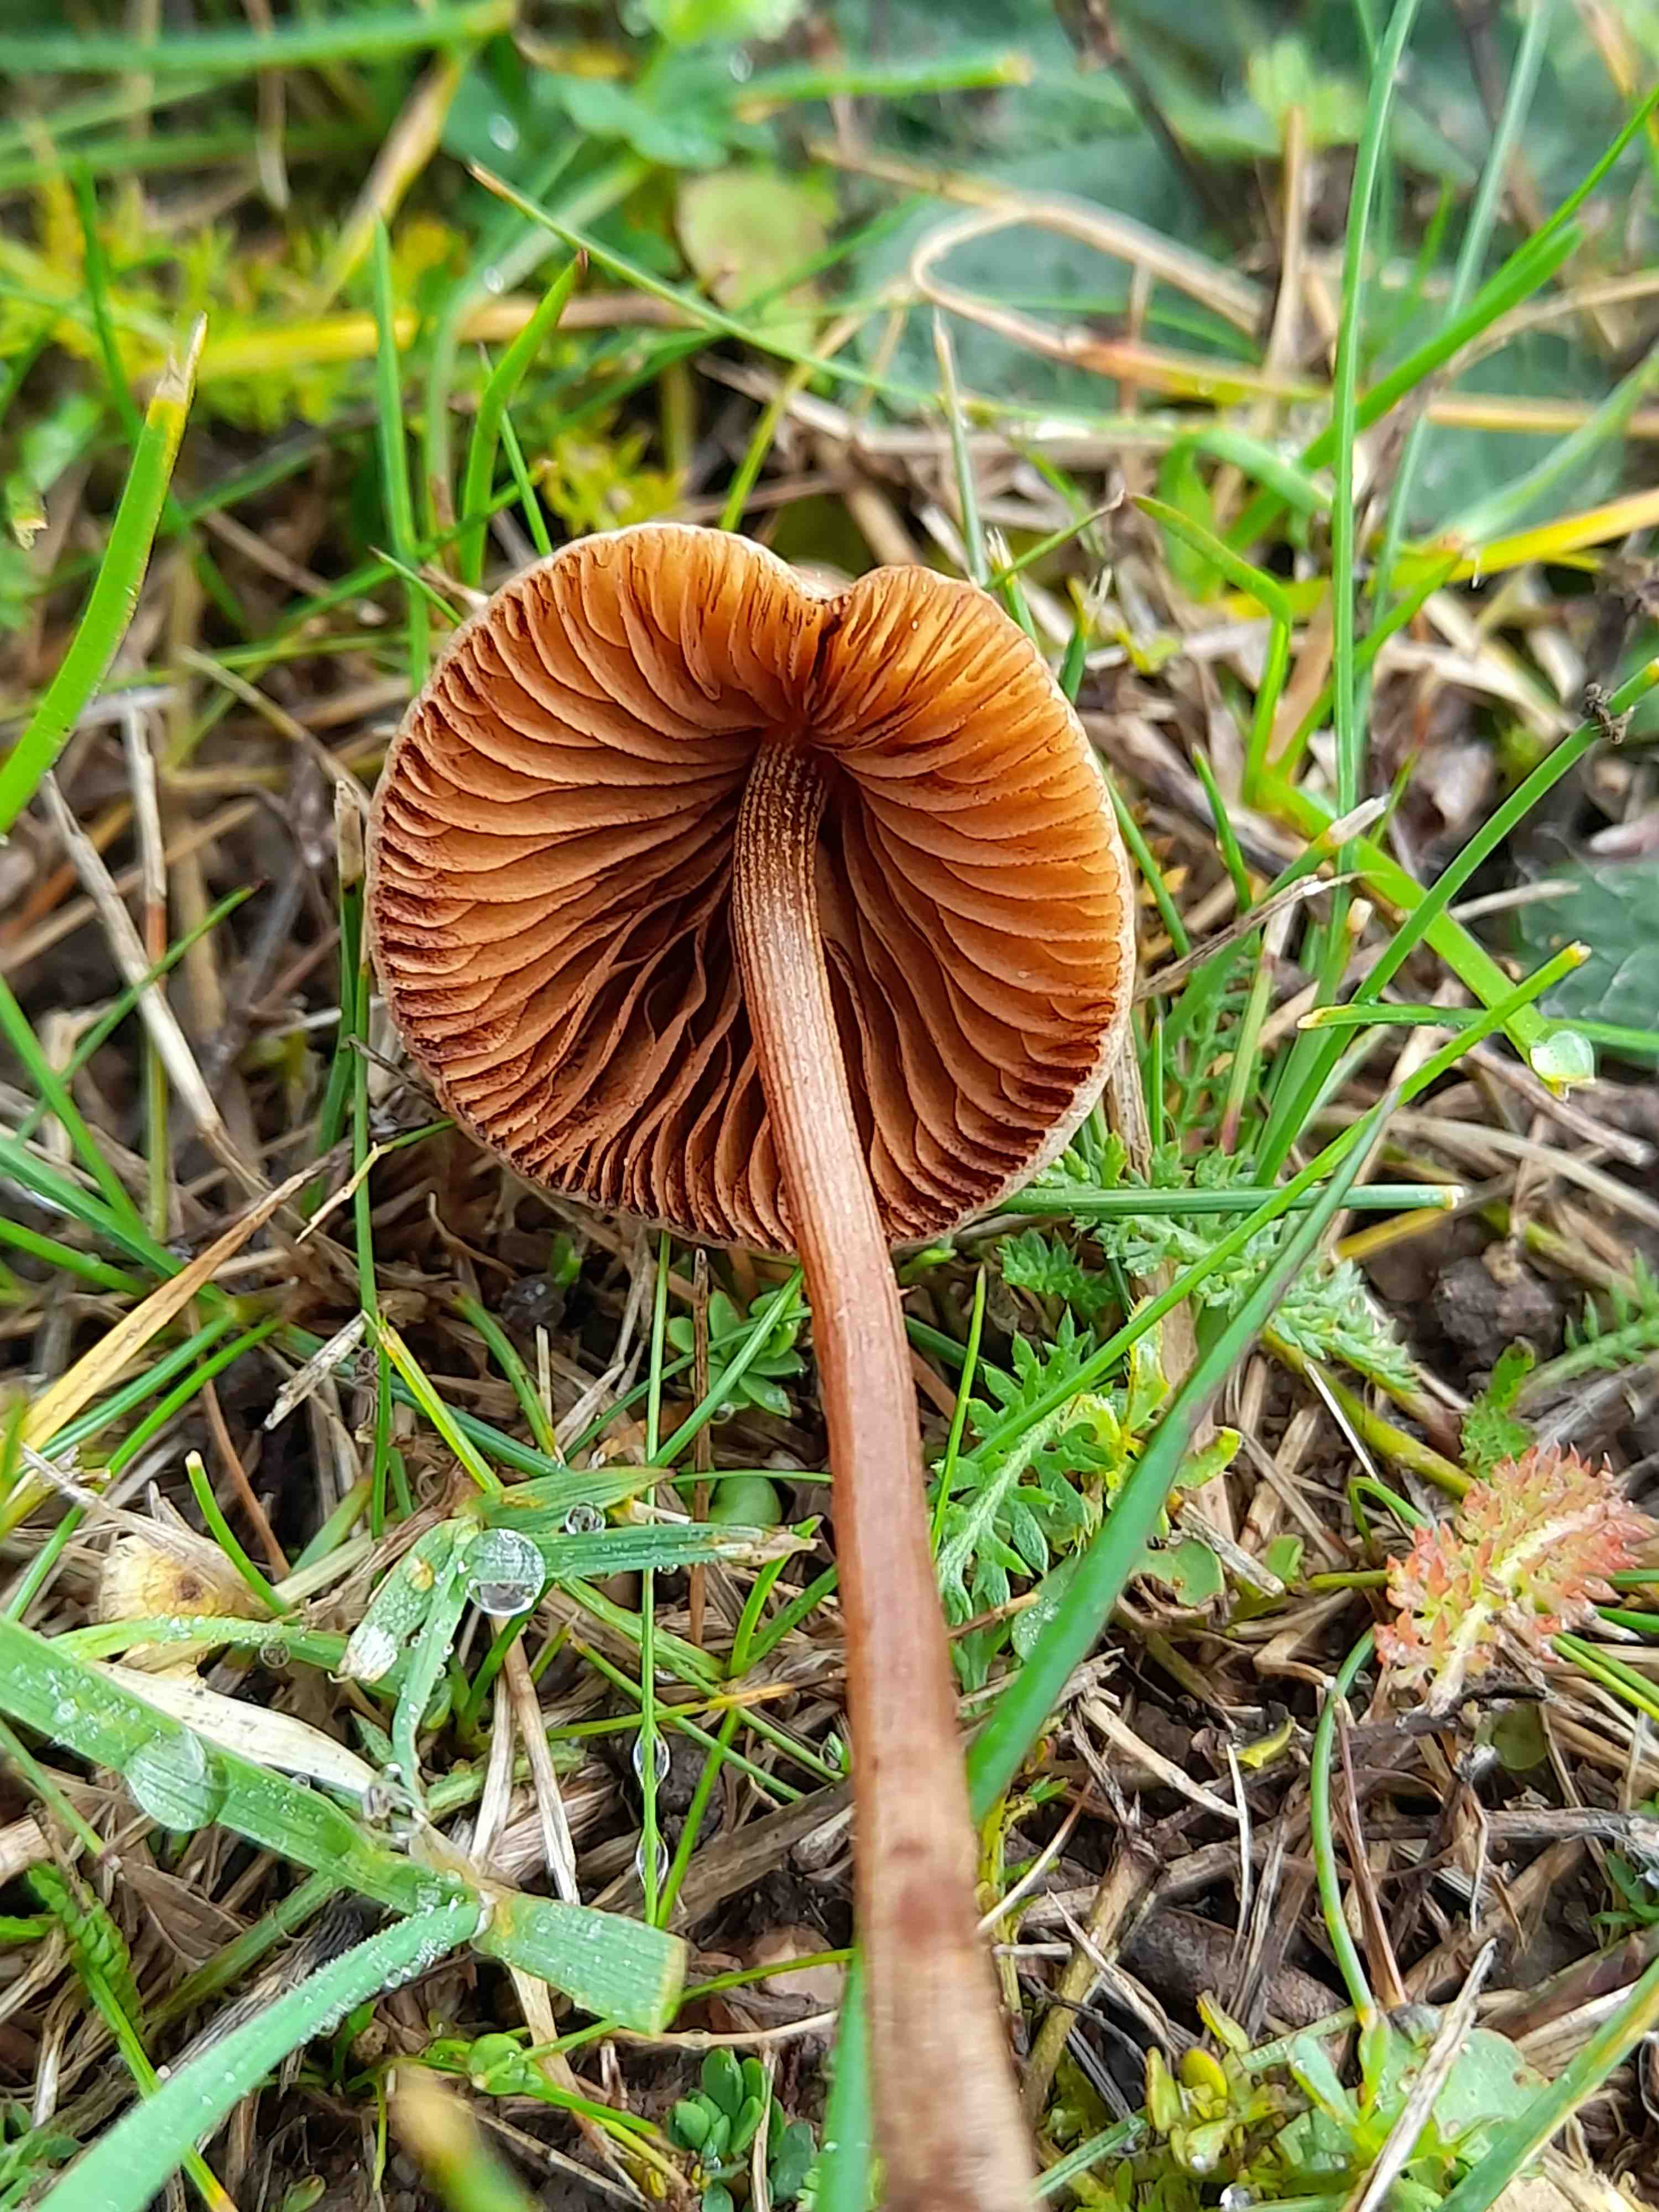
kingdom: Fungi
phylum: Basidiomycota
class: Agaricomycetes
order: Agaricales
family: Bolbitiaceae
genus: Conocybe
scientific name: Conocybe
